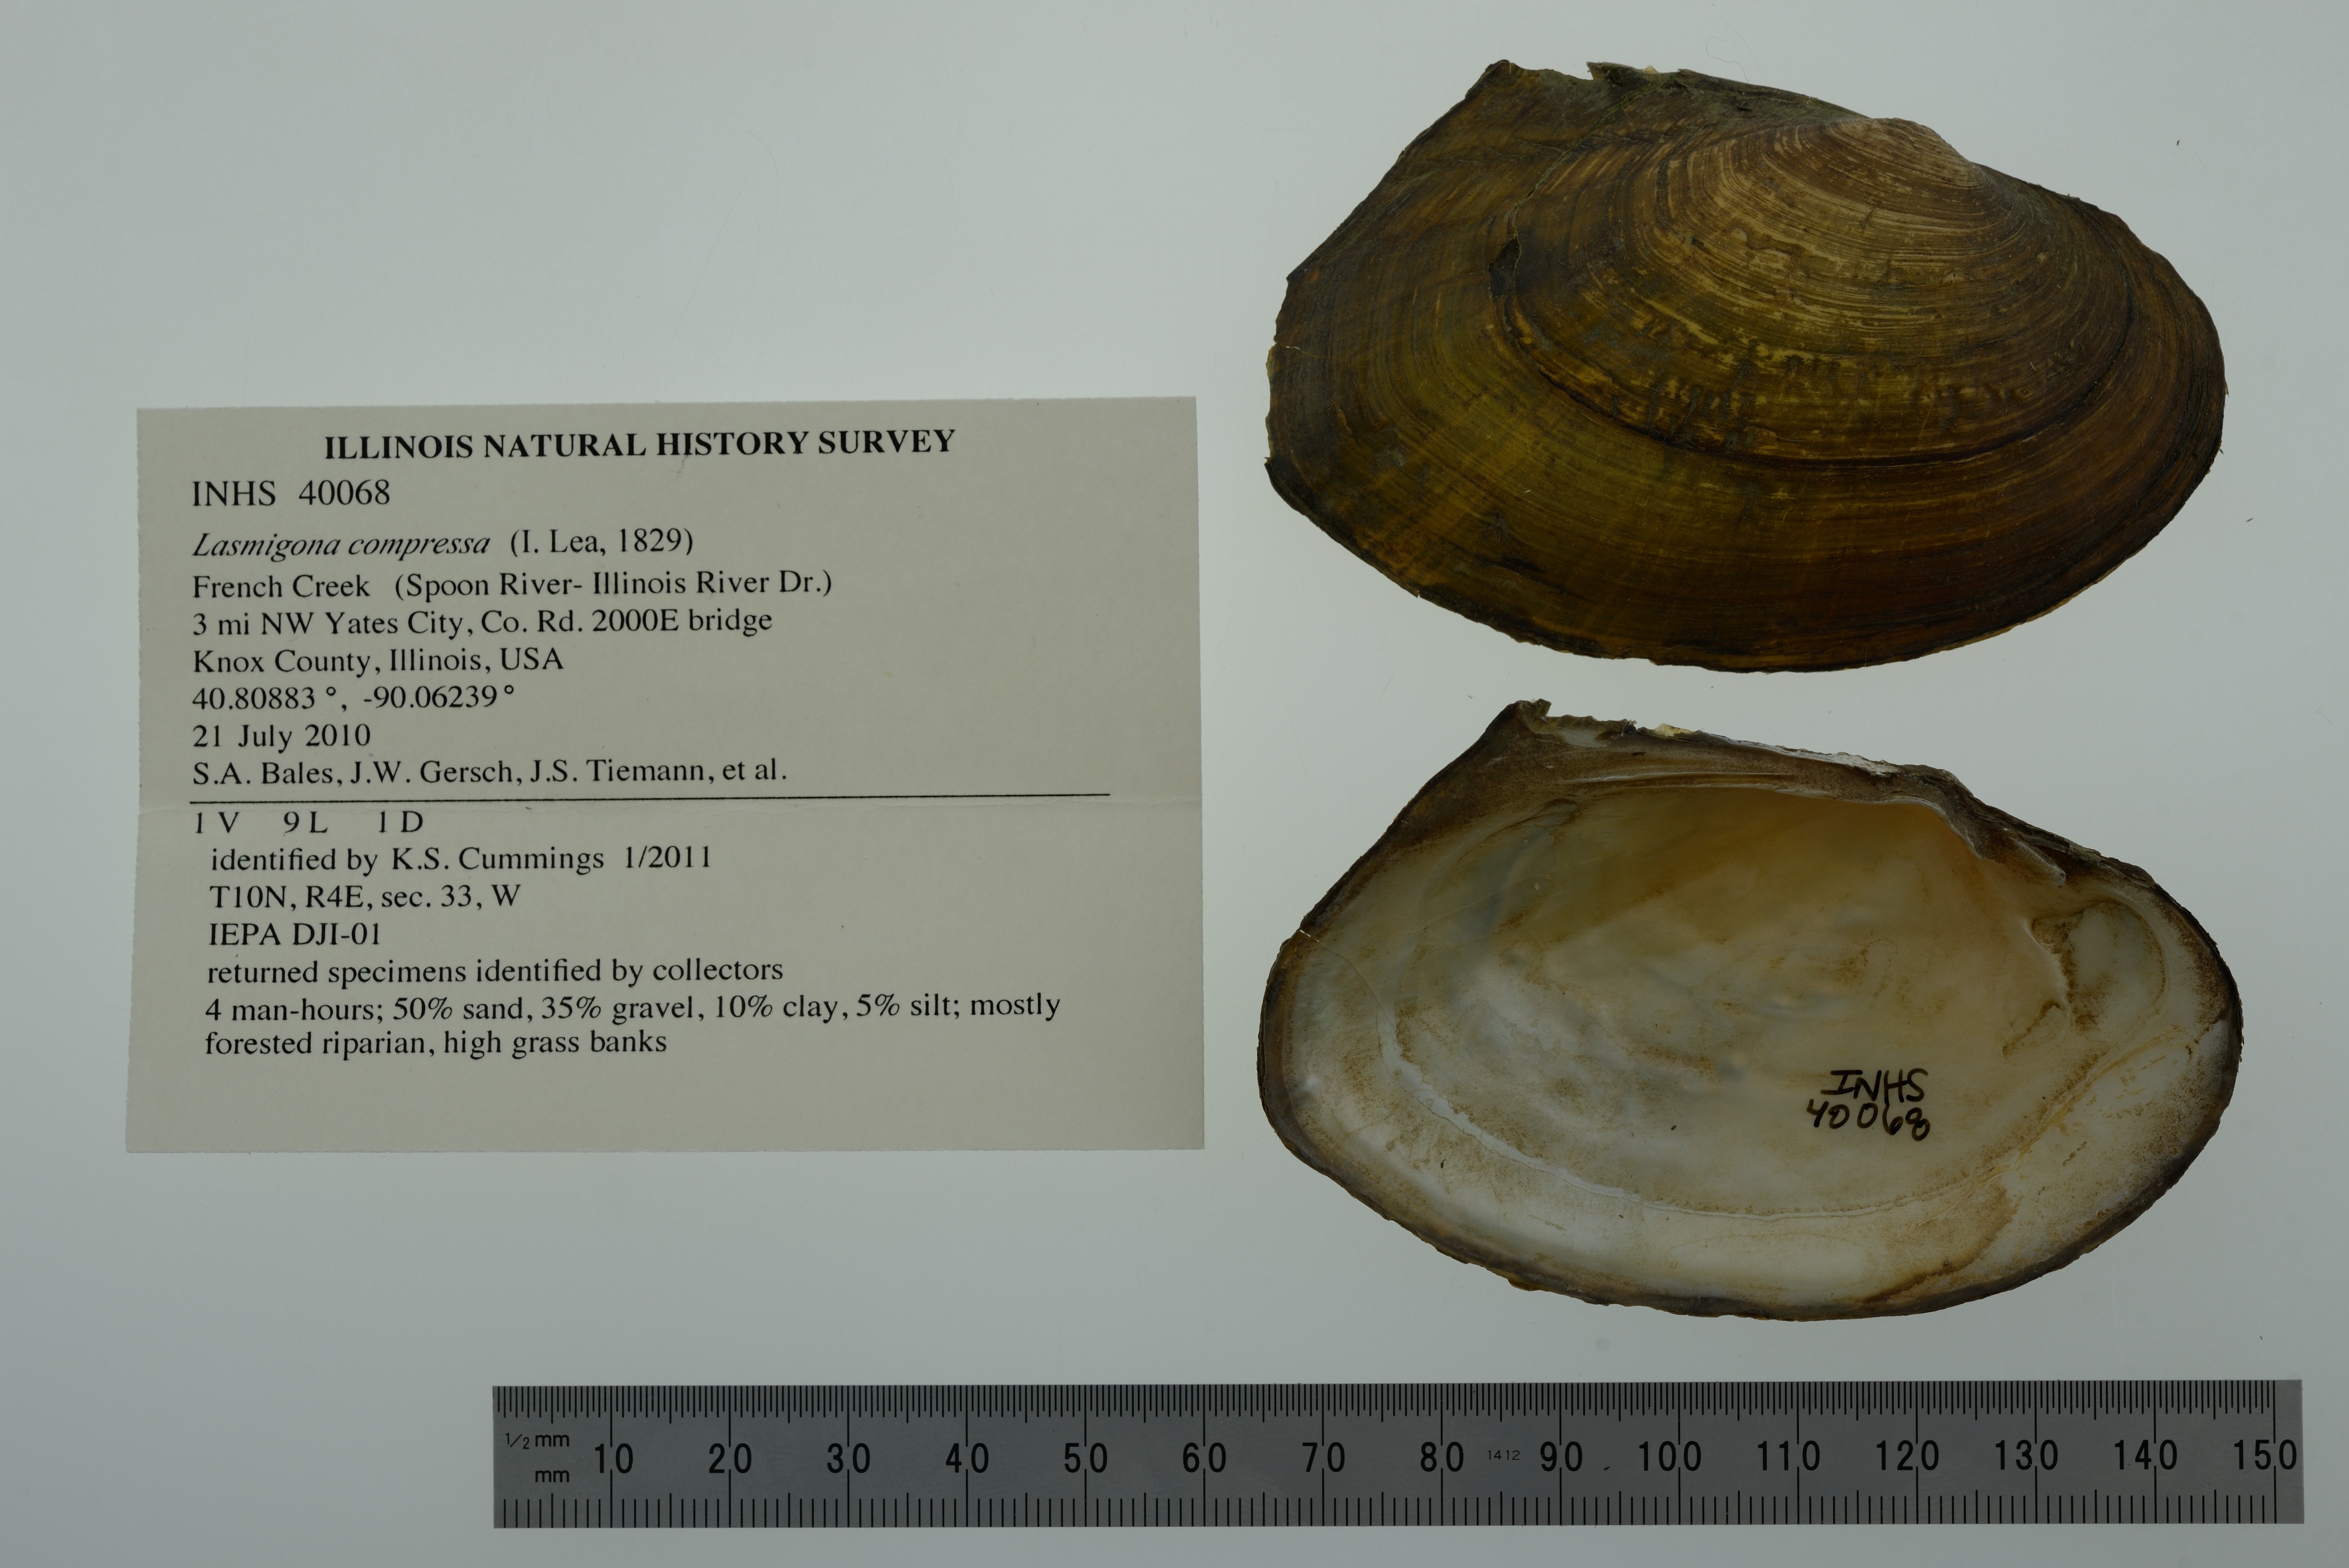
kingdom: Animalia
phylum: Mollusca
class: Bivalvia
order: Unionida
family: Unionidae
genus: Lasmigona
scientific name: Lasmigona compressa
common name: Creek heelsplitter
